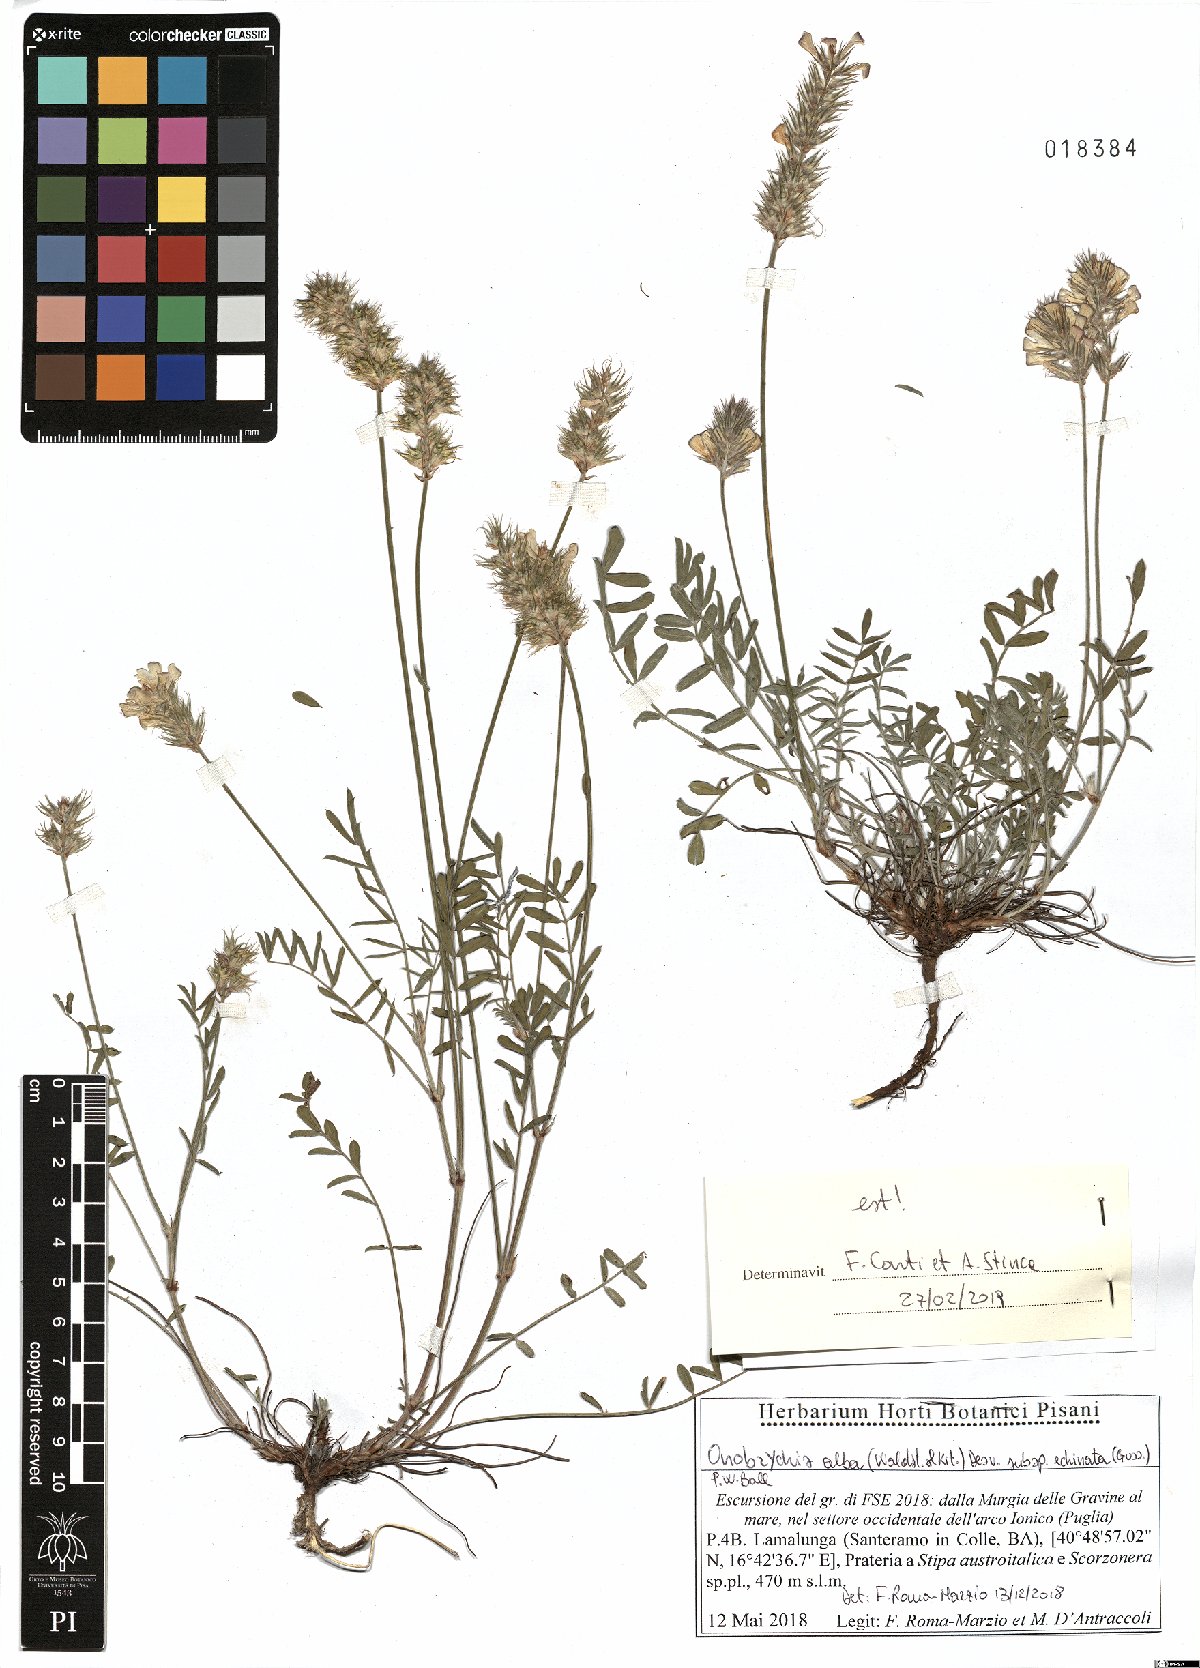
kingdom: Plantae
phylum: Tracheophyta
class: Magnoliopsida
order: Fabales
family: Fabaceae
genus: Onobrychis
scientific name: Onobrychis alba
